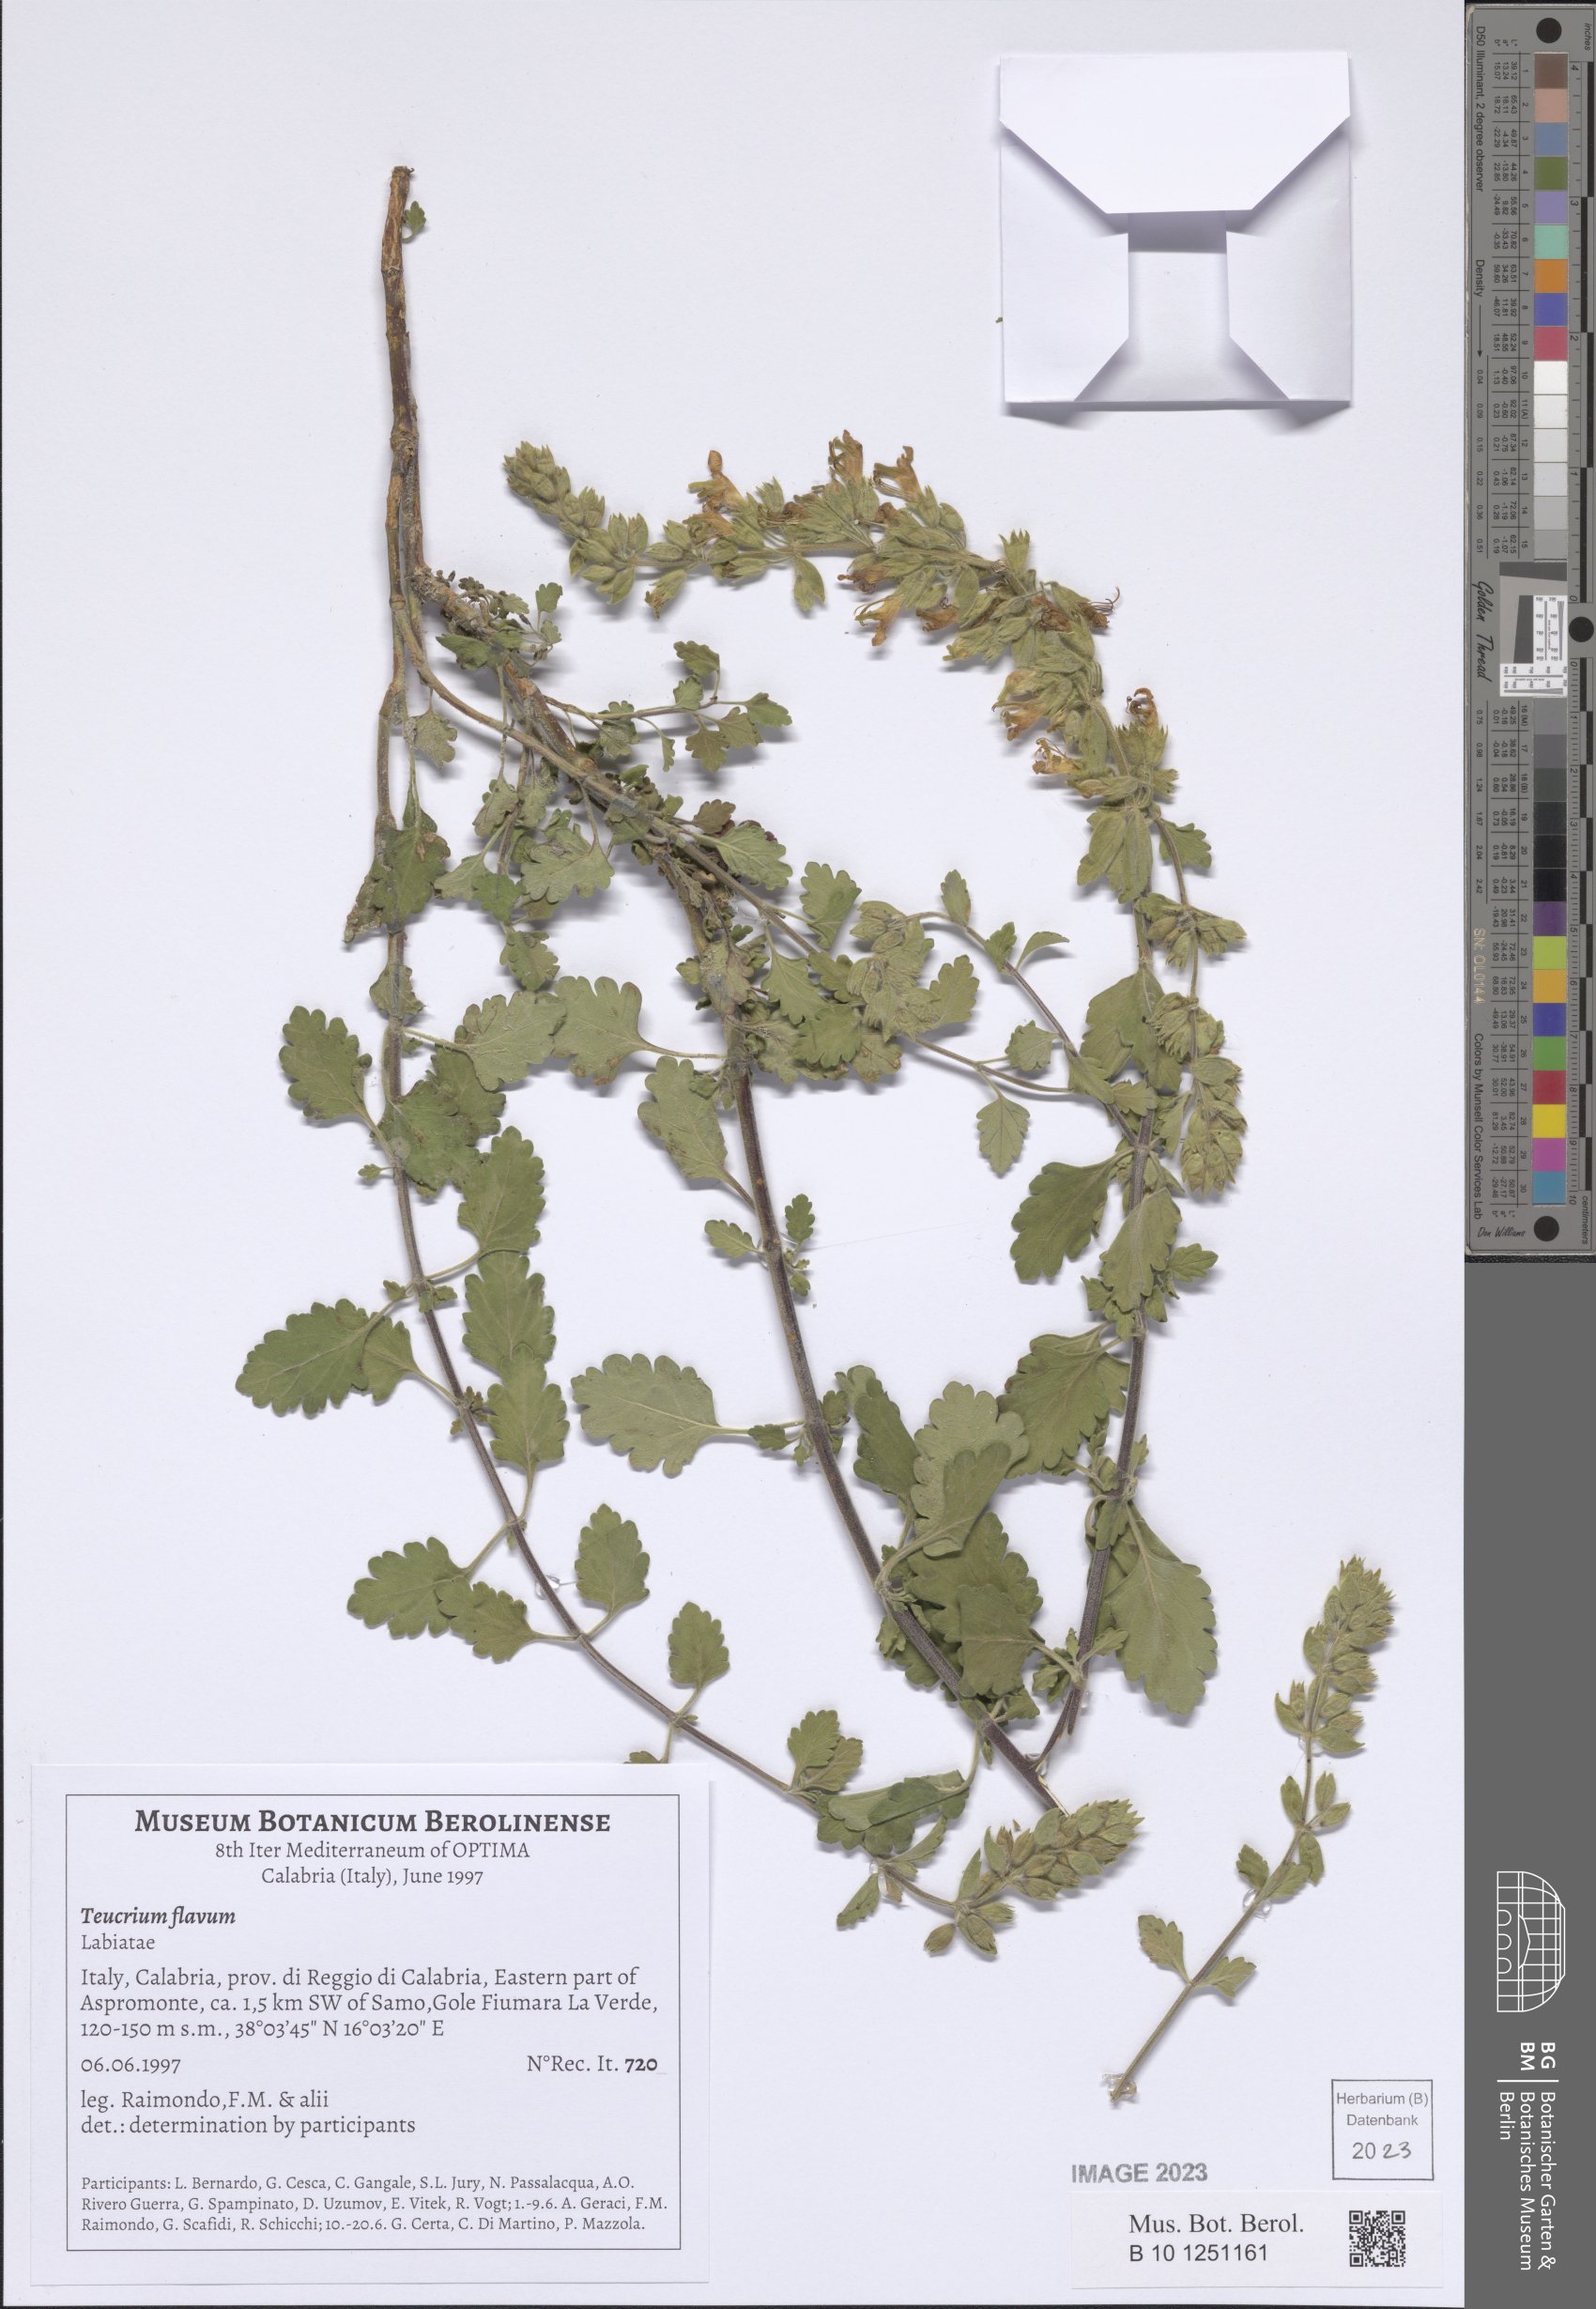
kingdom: Plantae
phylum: Tracheophyta
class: Magnoliopsida
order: Lamiales
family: Lamiaceae
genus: Teucrium
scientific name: Teucrium flavum
